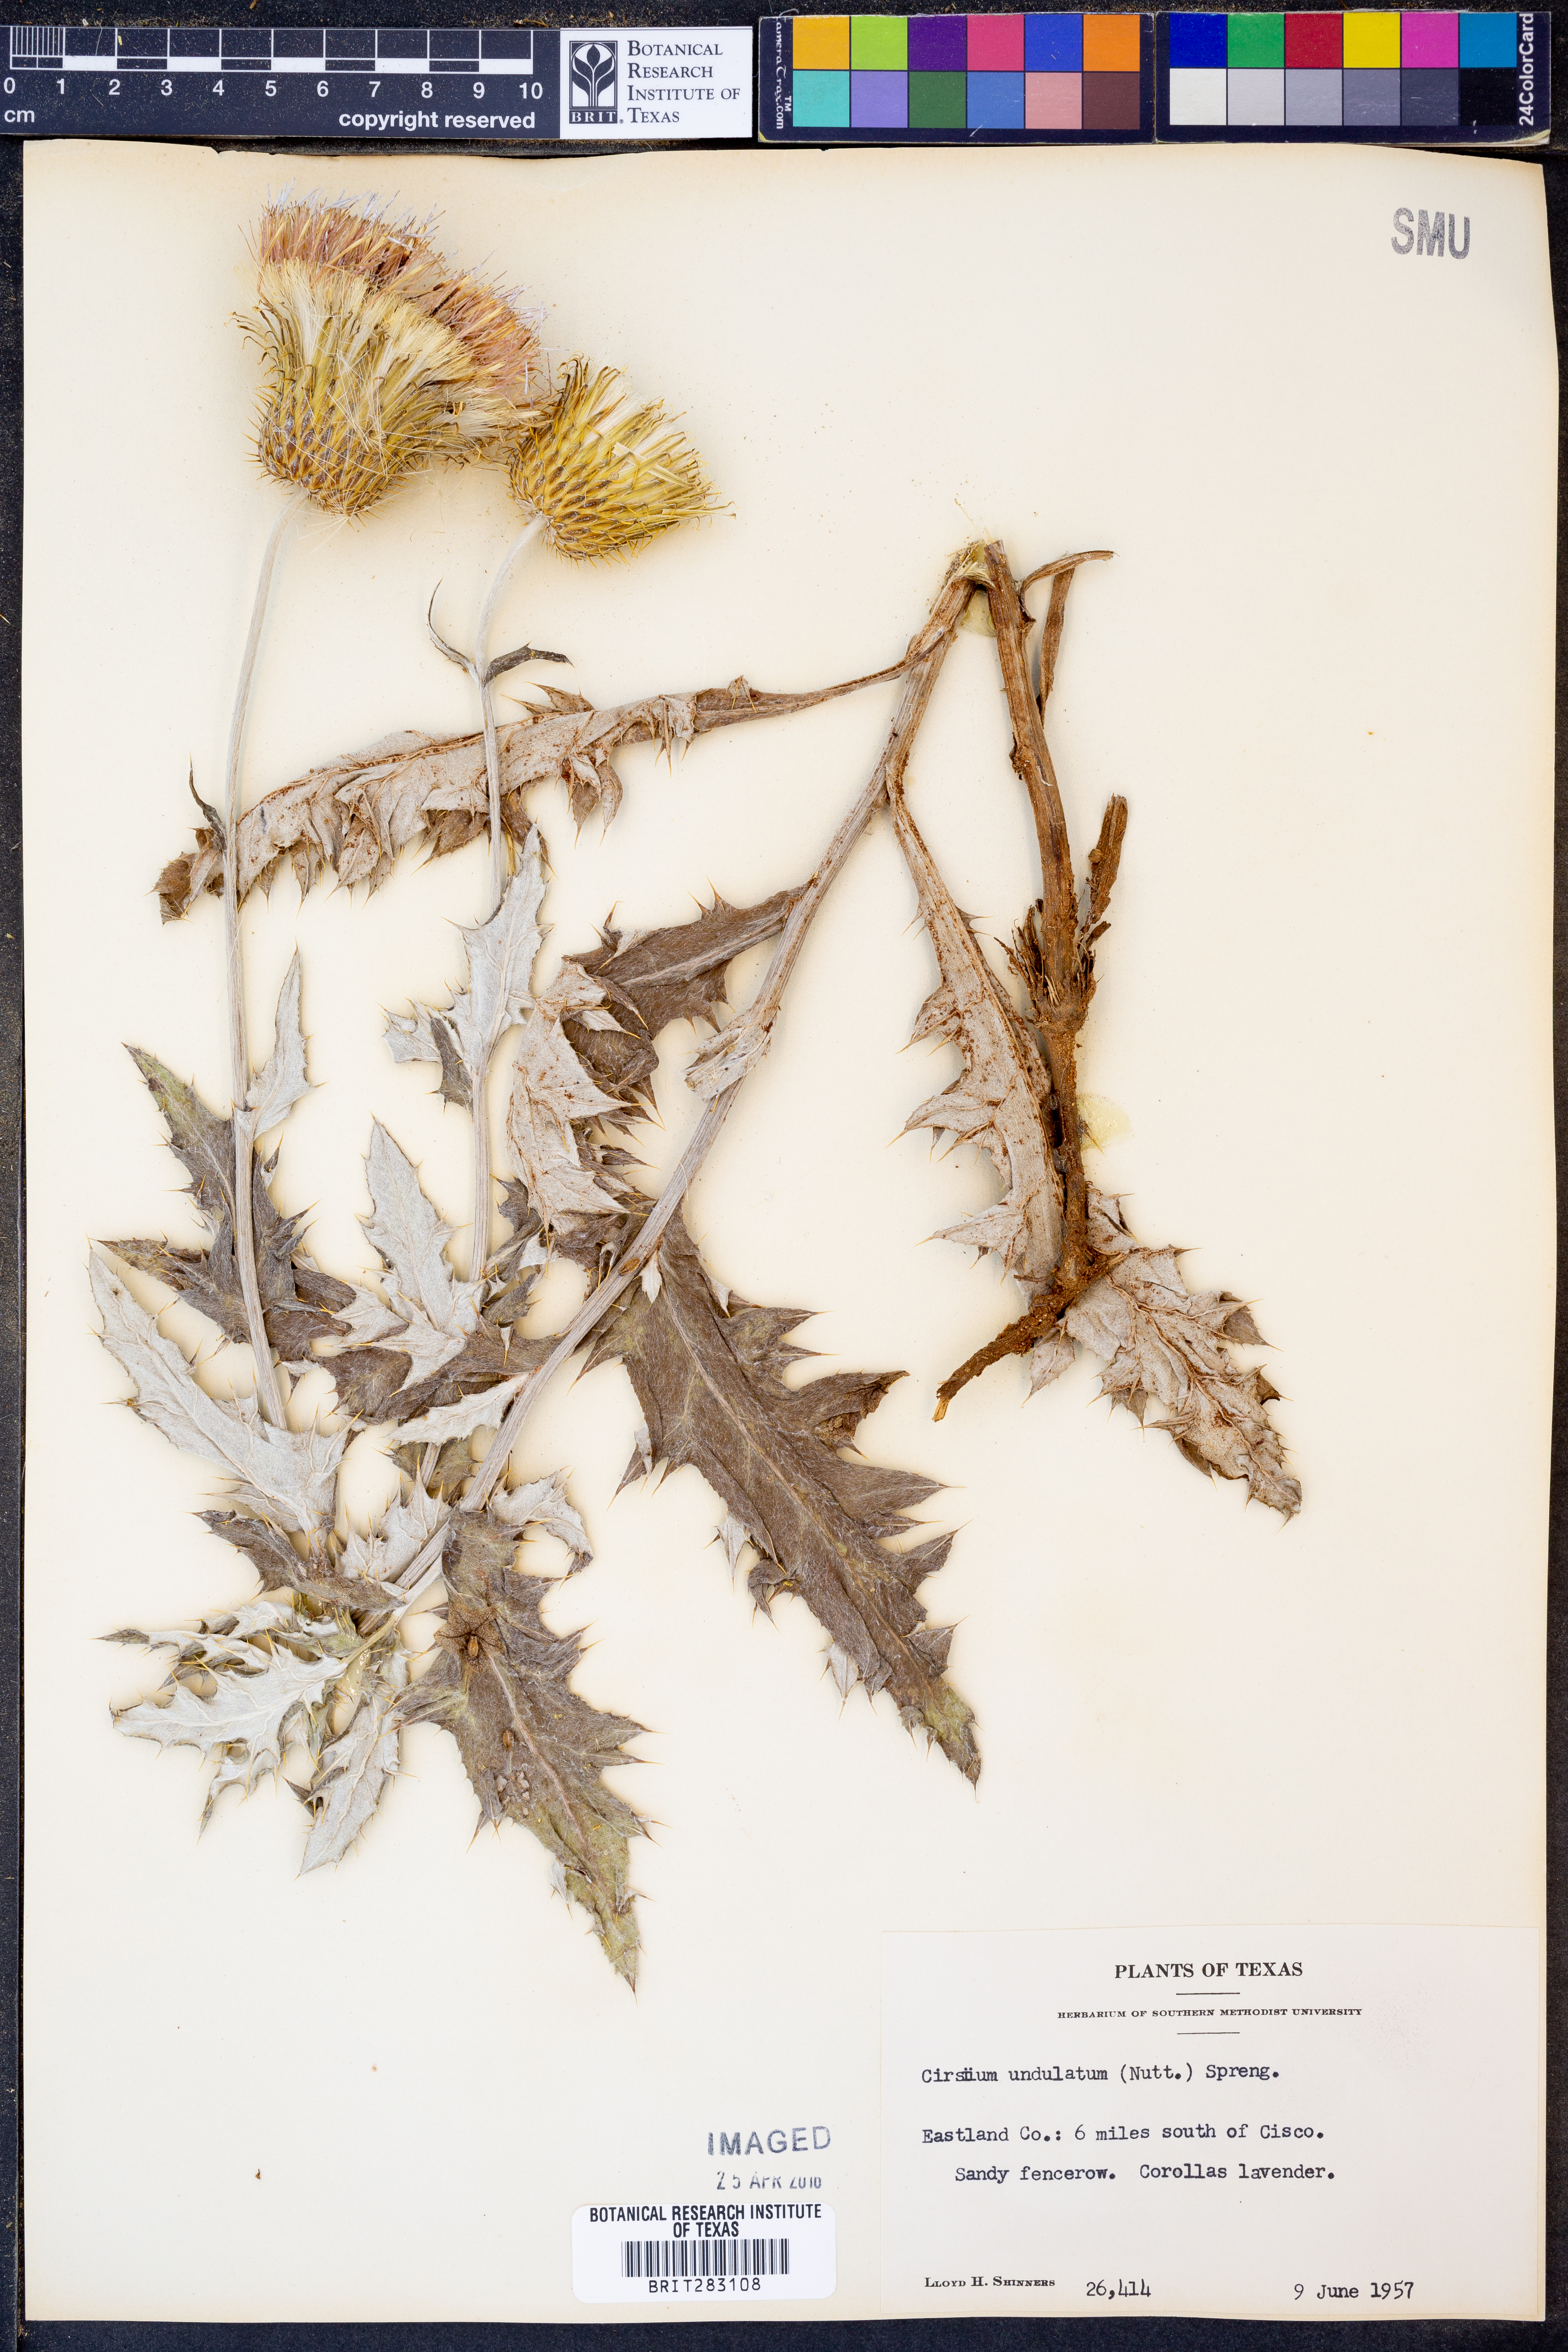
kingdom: Plantae
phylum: Tracheophyta
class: Magnoliopsida
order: Asterales
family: Asteraceae
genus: Cirsium
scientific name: Cirsium undulatum
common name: Pasture thistle
